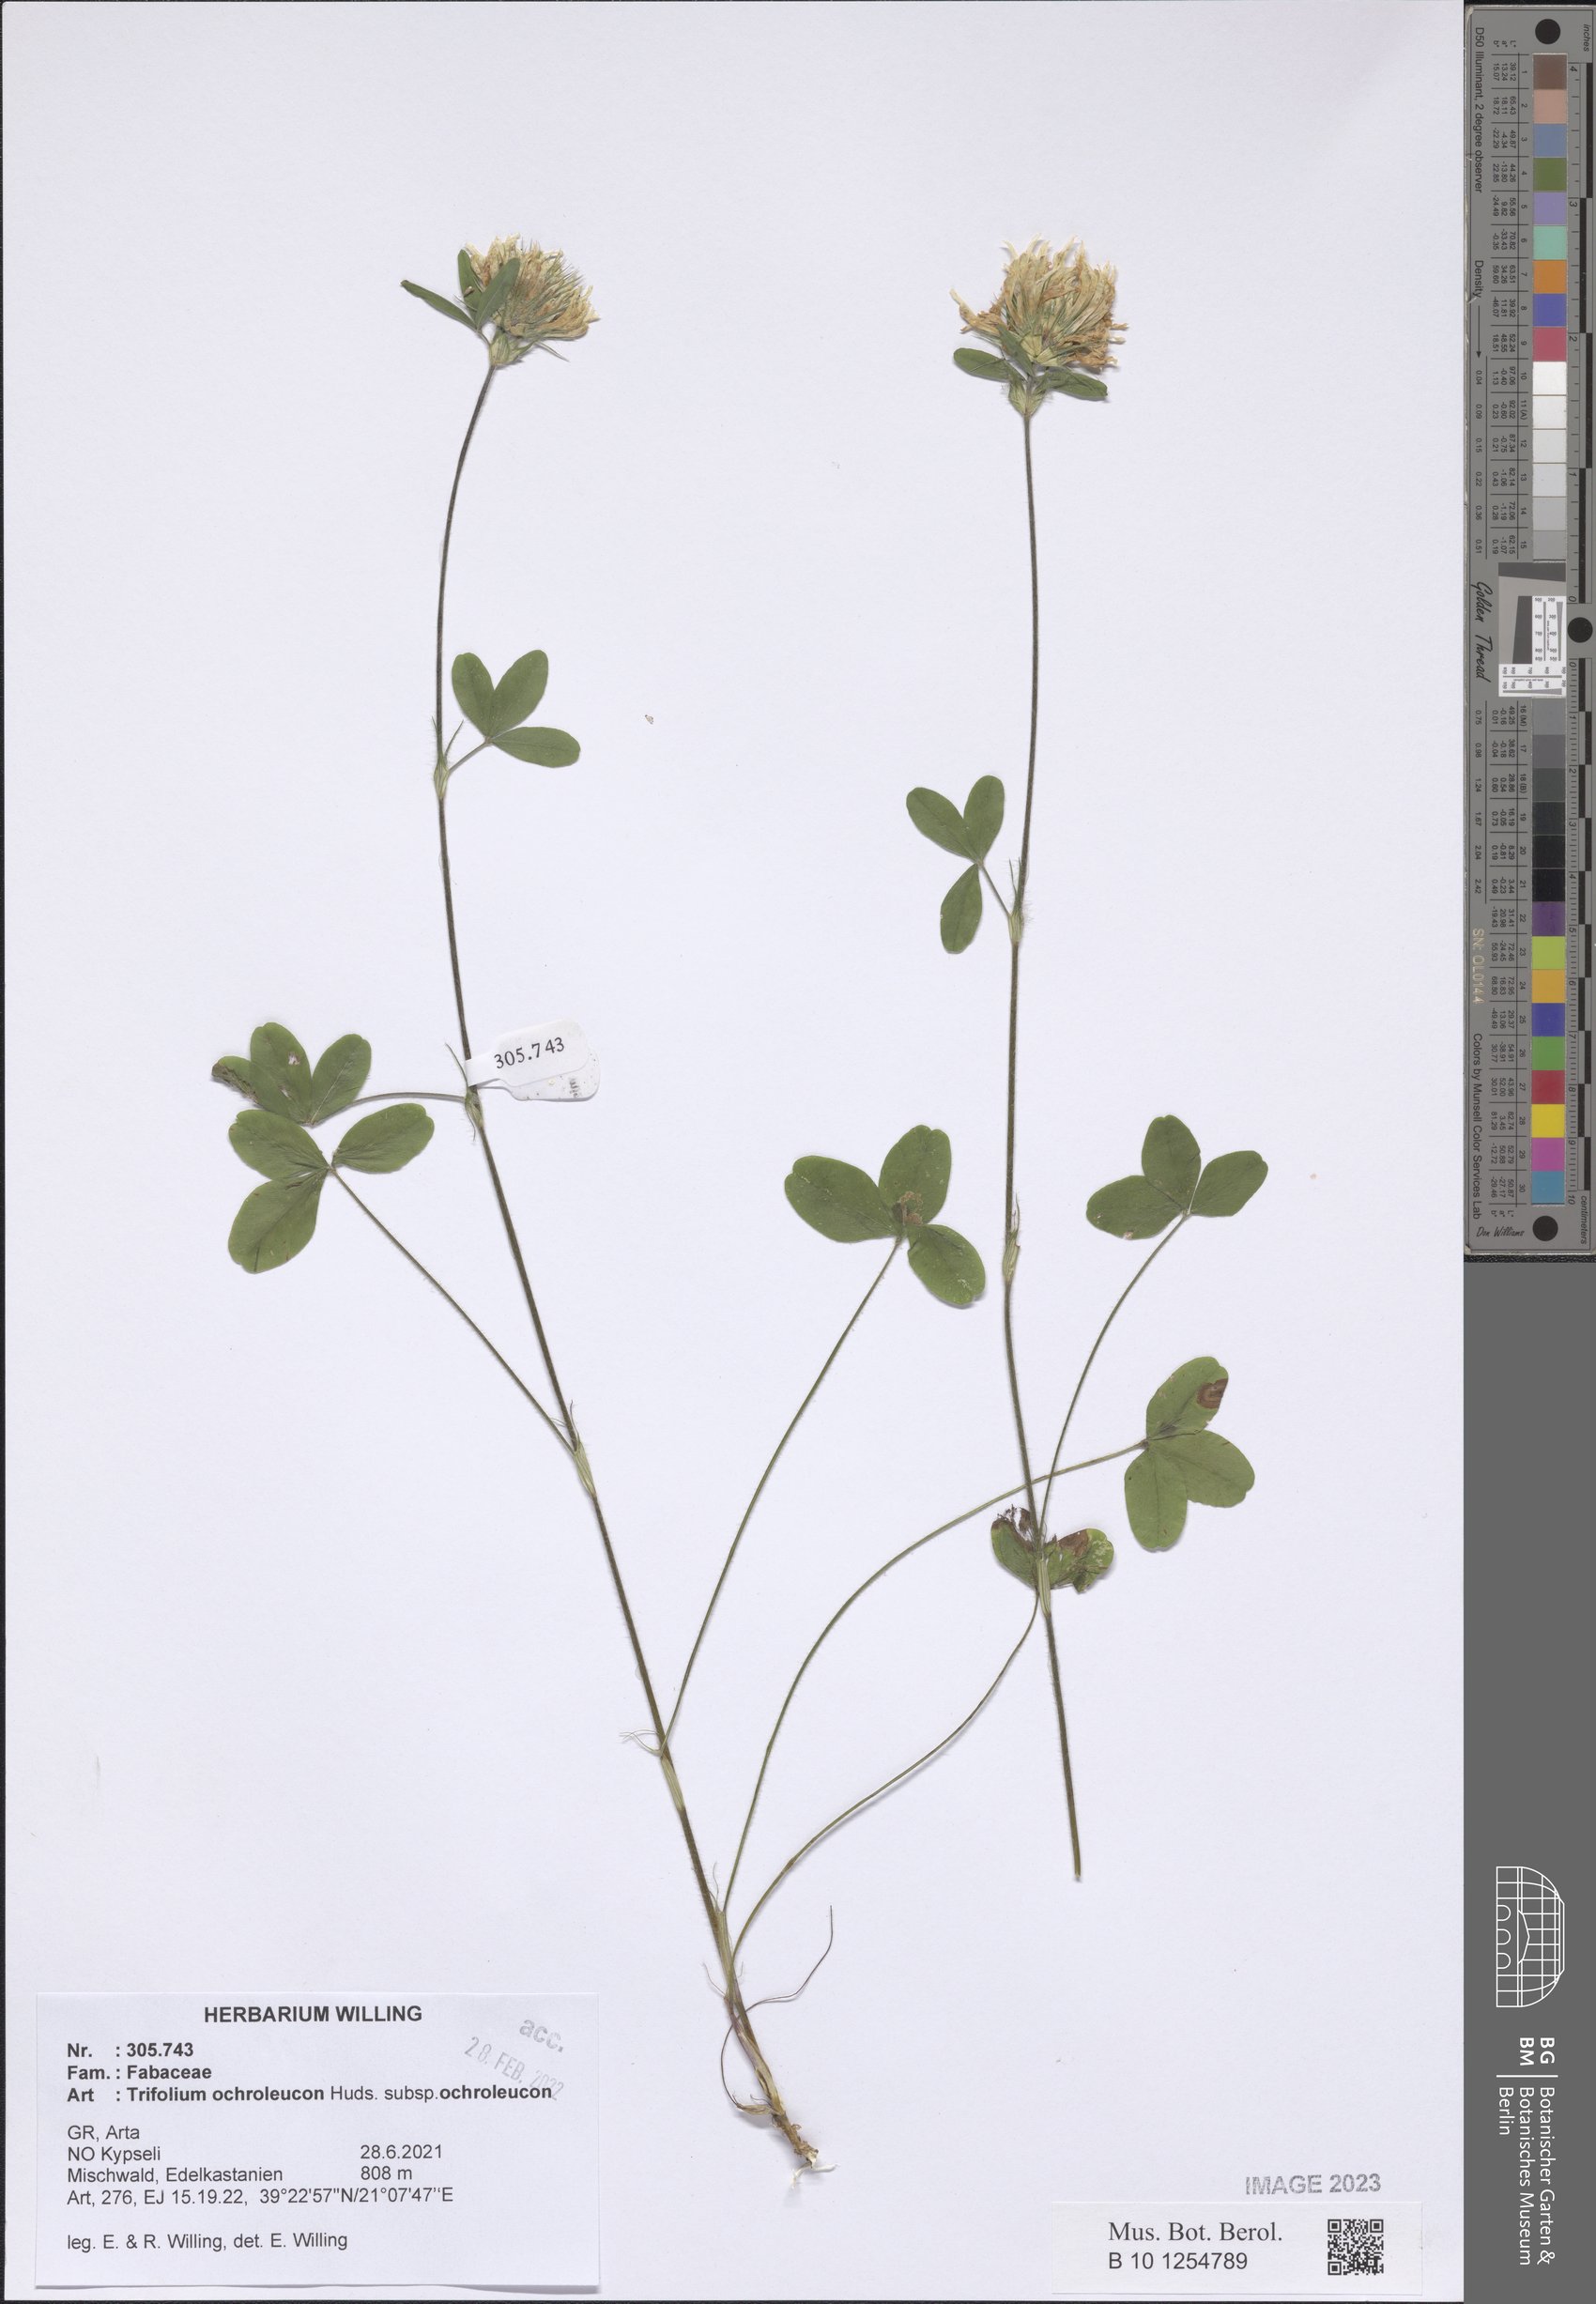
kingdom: Plantae
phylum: Tracheophyta
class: Magnoliopsida
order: Fabales
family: Fabaceae
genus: Trifolium
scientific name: Trifolium ochroleucon
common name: Sulphur clover
